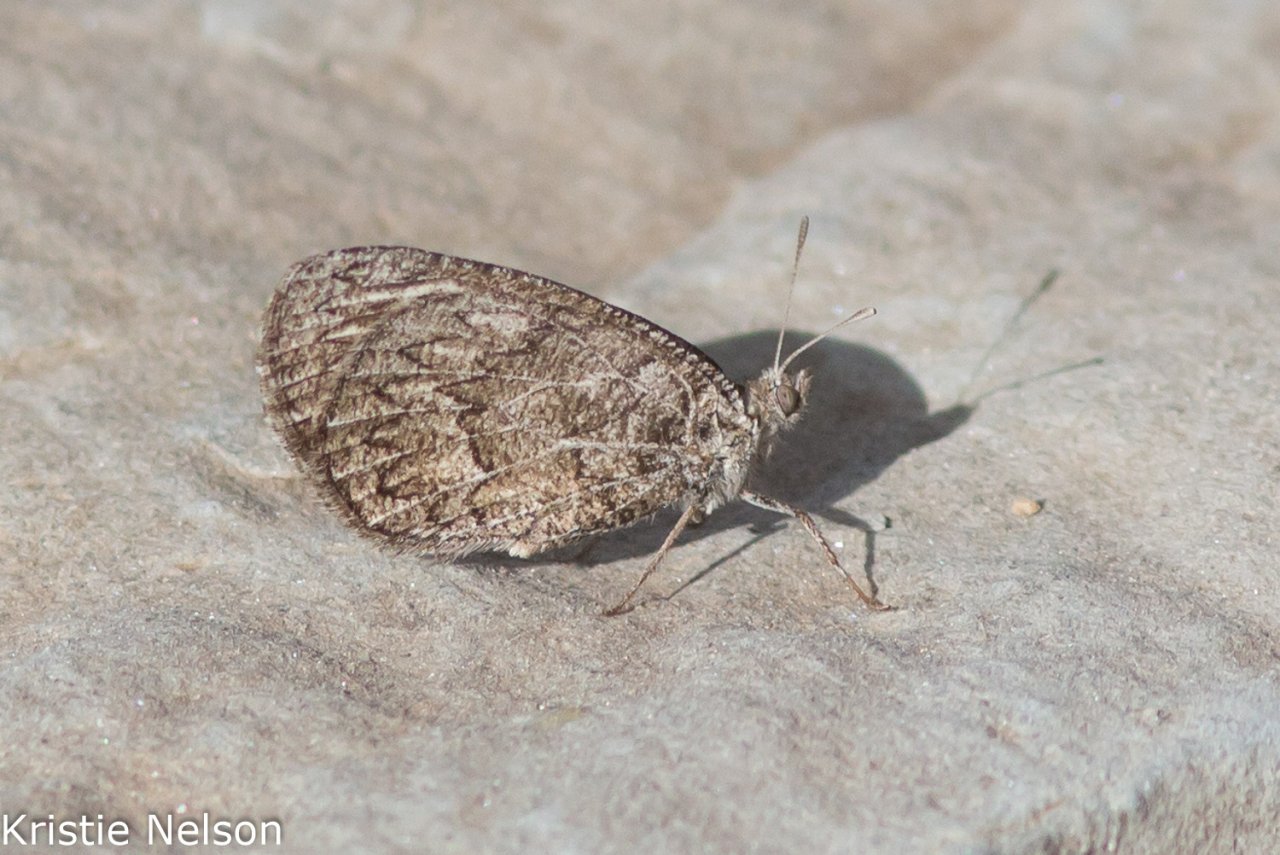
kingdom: Animalia
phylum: Arthropoda
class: Insecta
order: Lepidoptera
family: Nymphalidae
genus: Neominois
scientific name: Neominois ridingsii
